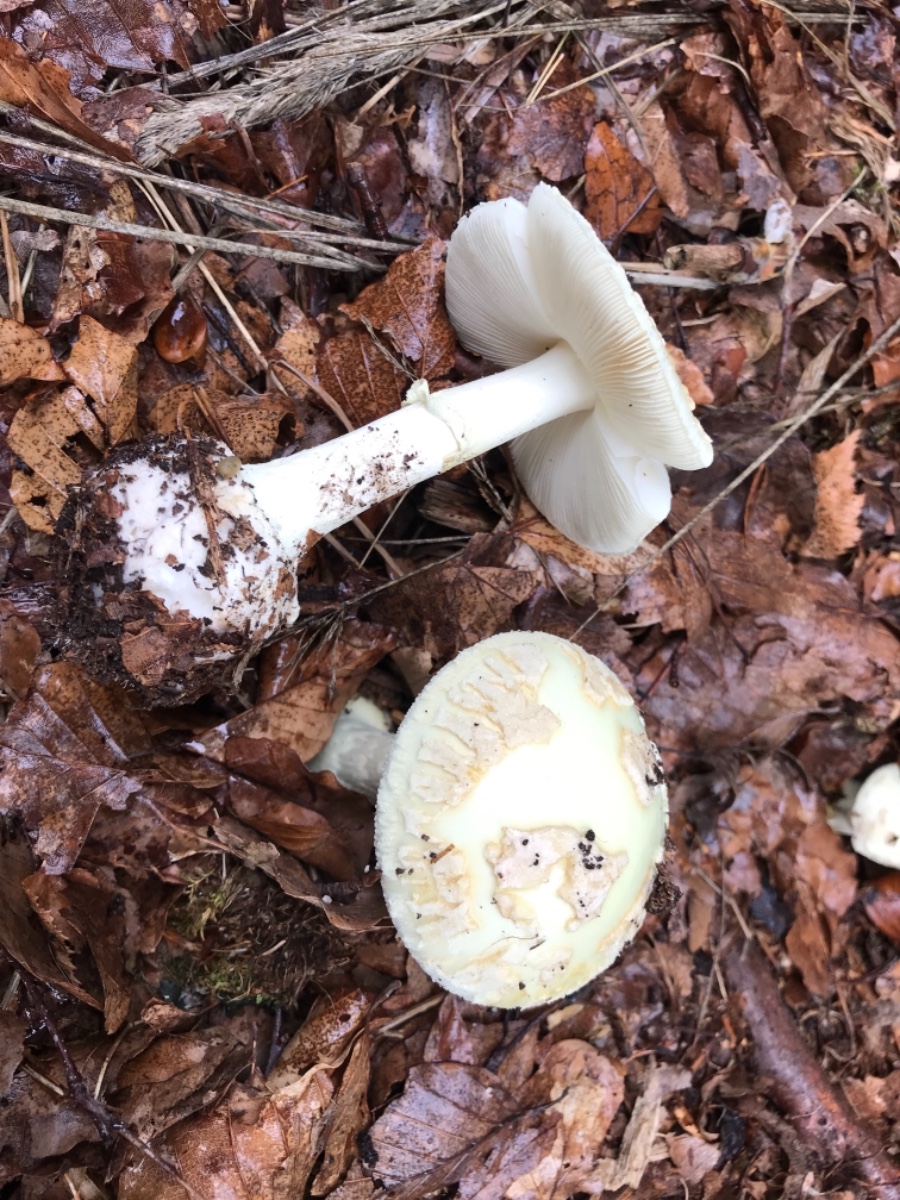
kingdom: Fungi
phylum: Basidiomycota
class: Agaricomycetes
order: Agaricales
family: Amanitaceae
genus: Amanita
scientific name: Amanita citrina
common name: kugleknoldet fluesvamp
